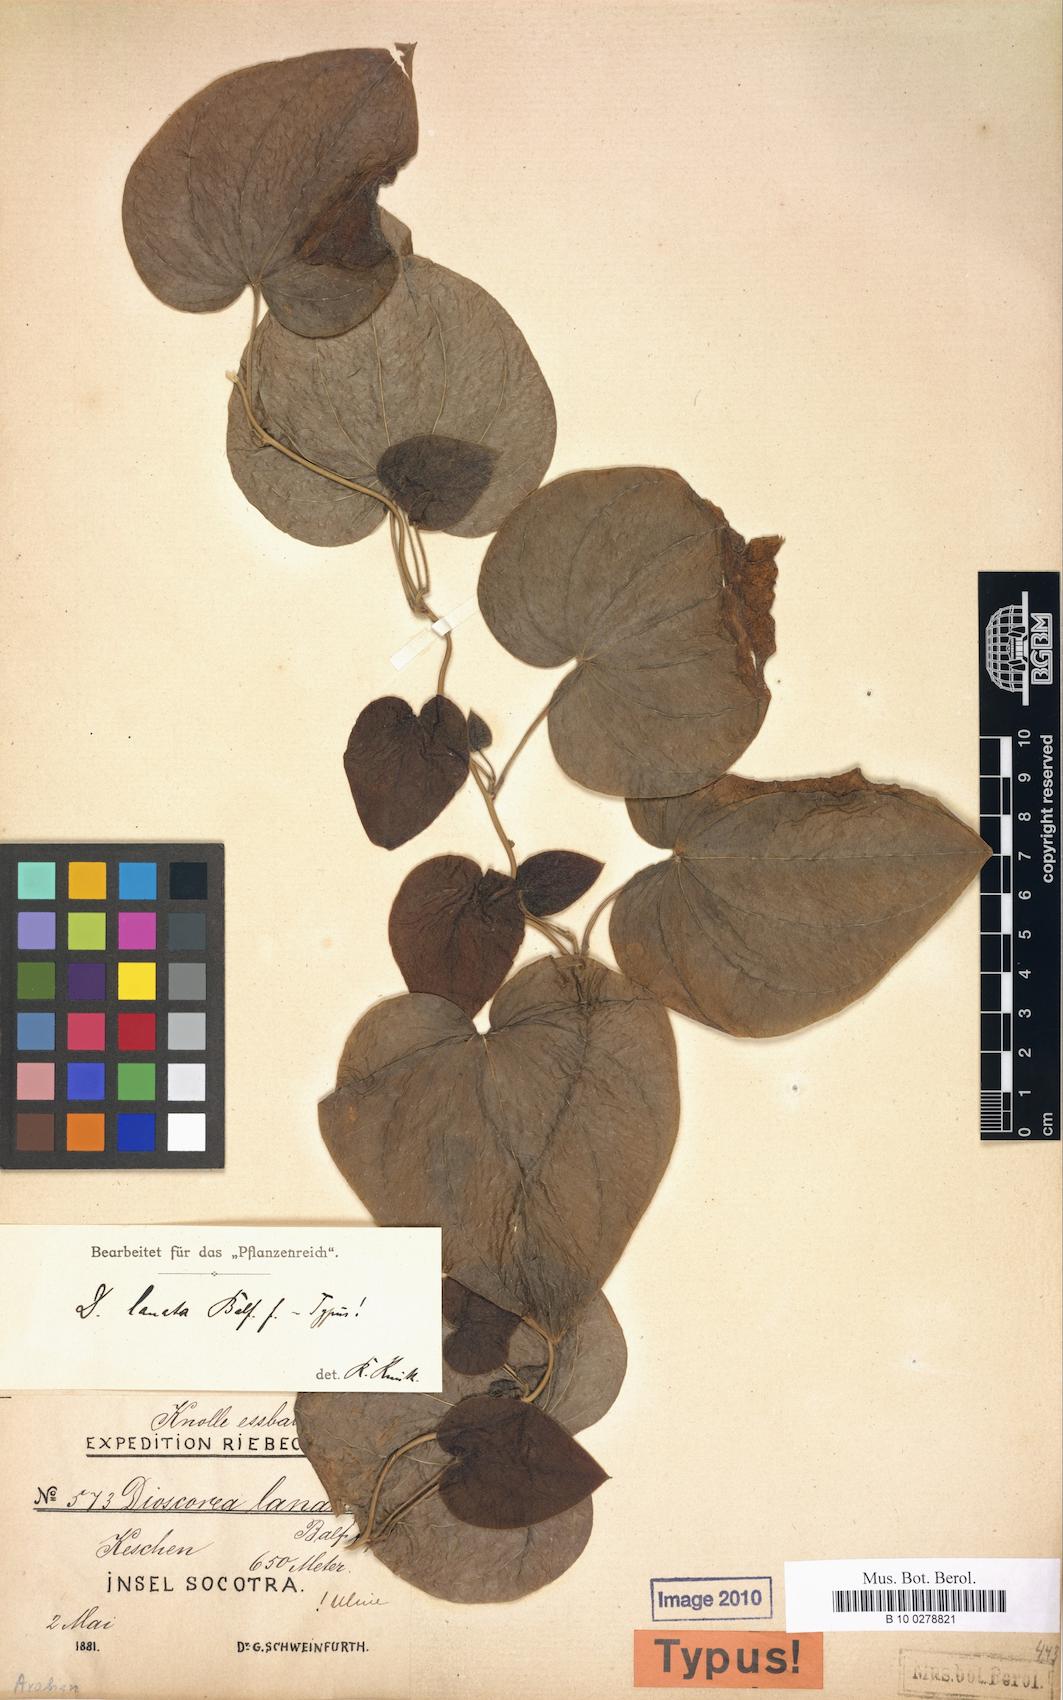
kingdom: Plantae
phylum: Tracheophyta
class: Liliopsida
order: Dioscoreales
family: Dioscoreaceae
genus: Dioscorea
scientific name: Dioscorea lanata
